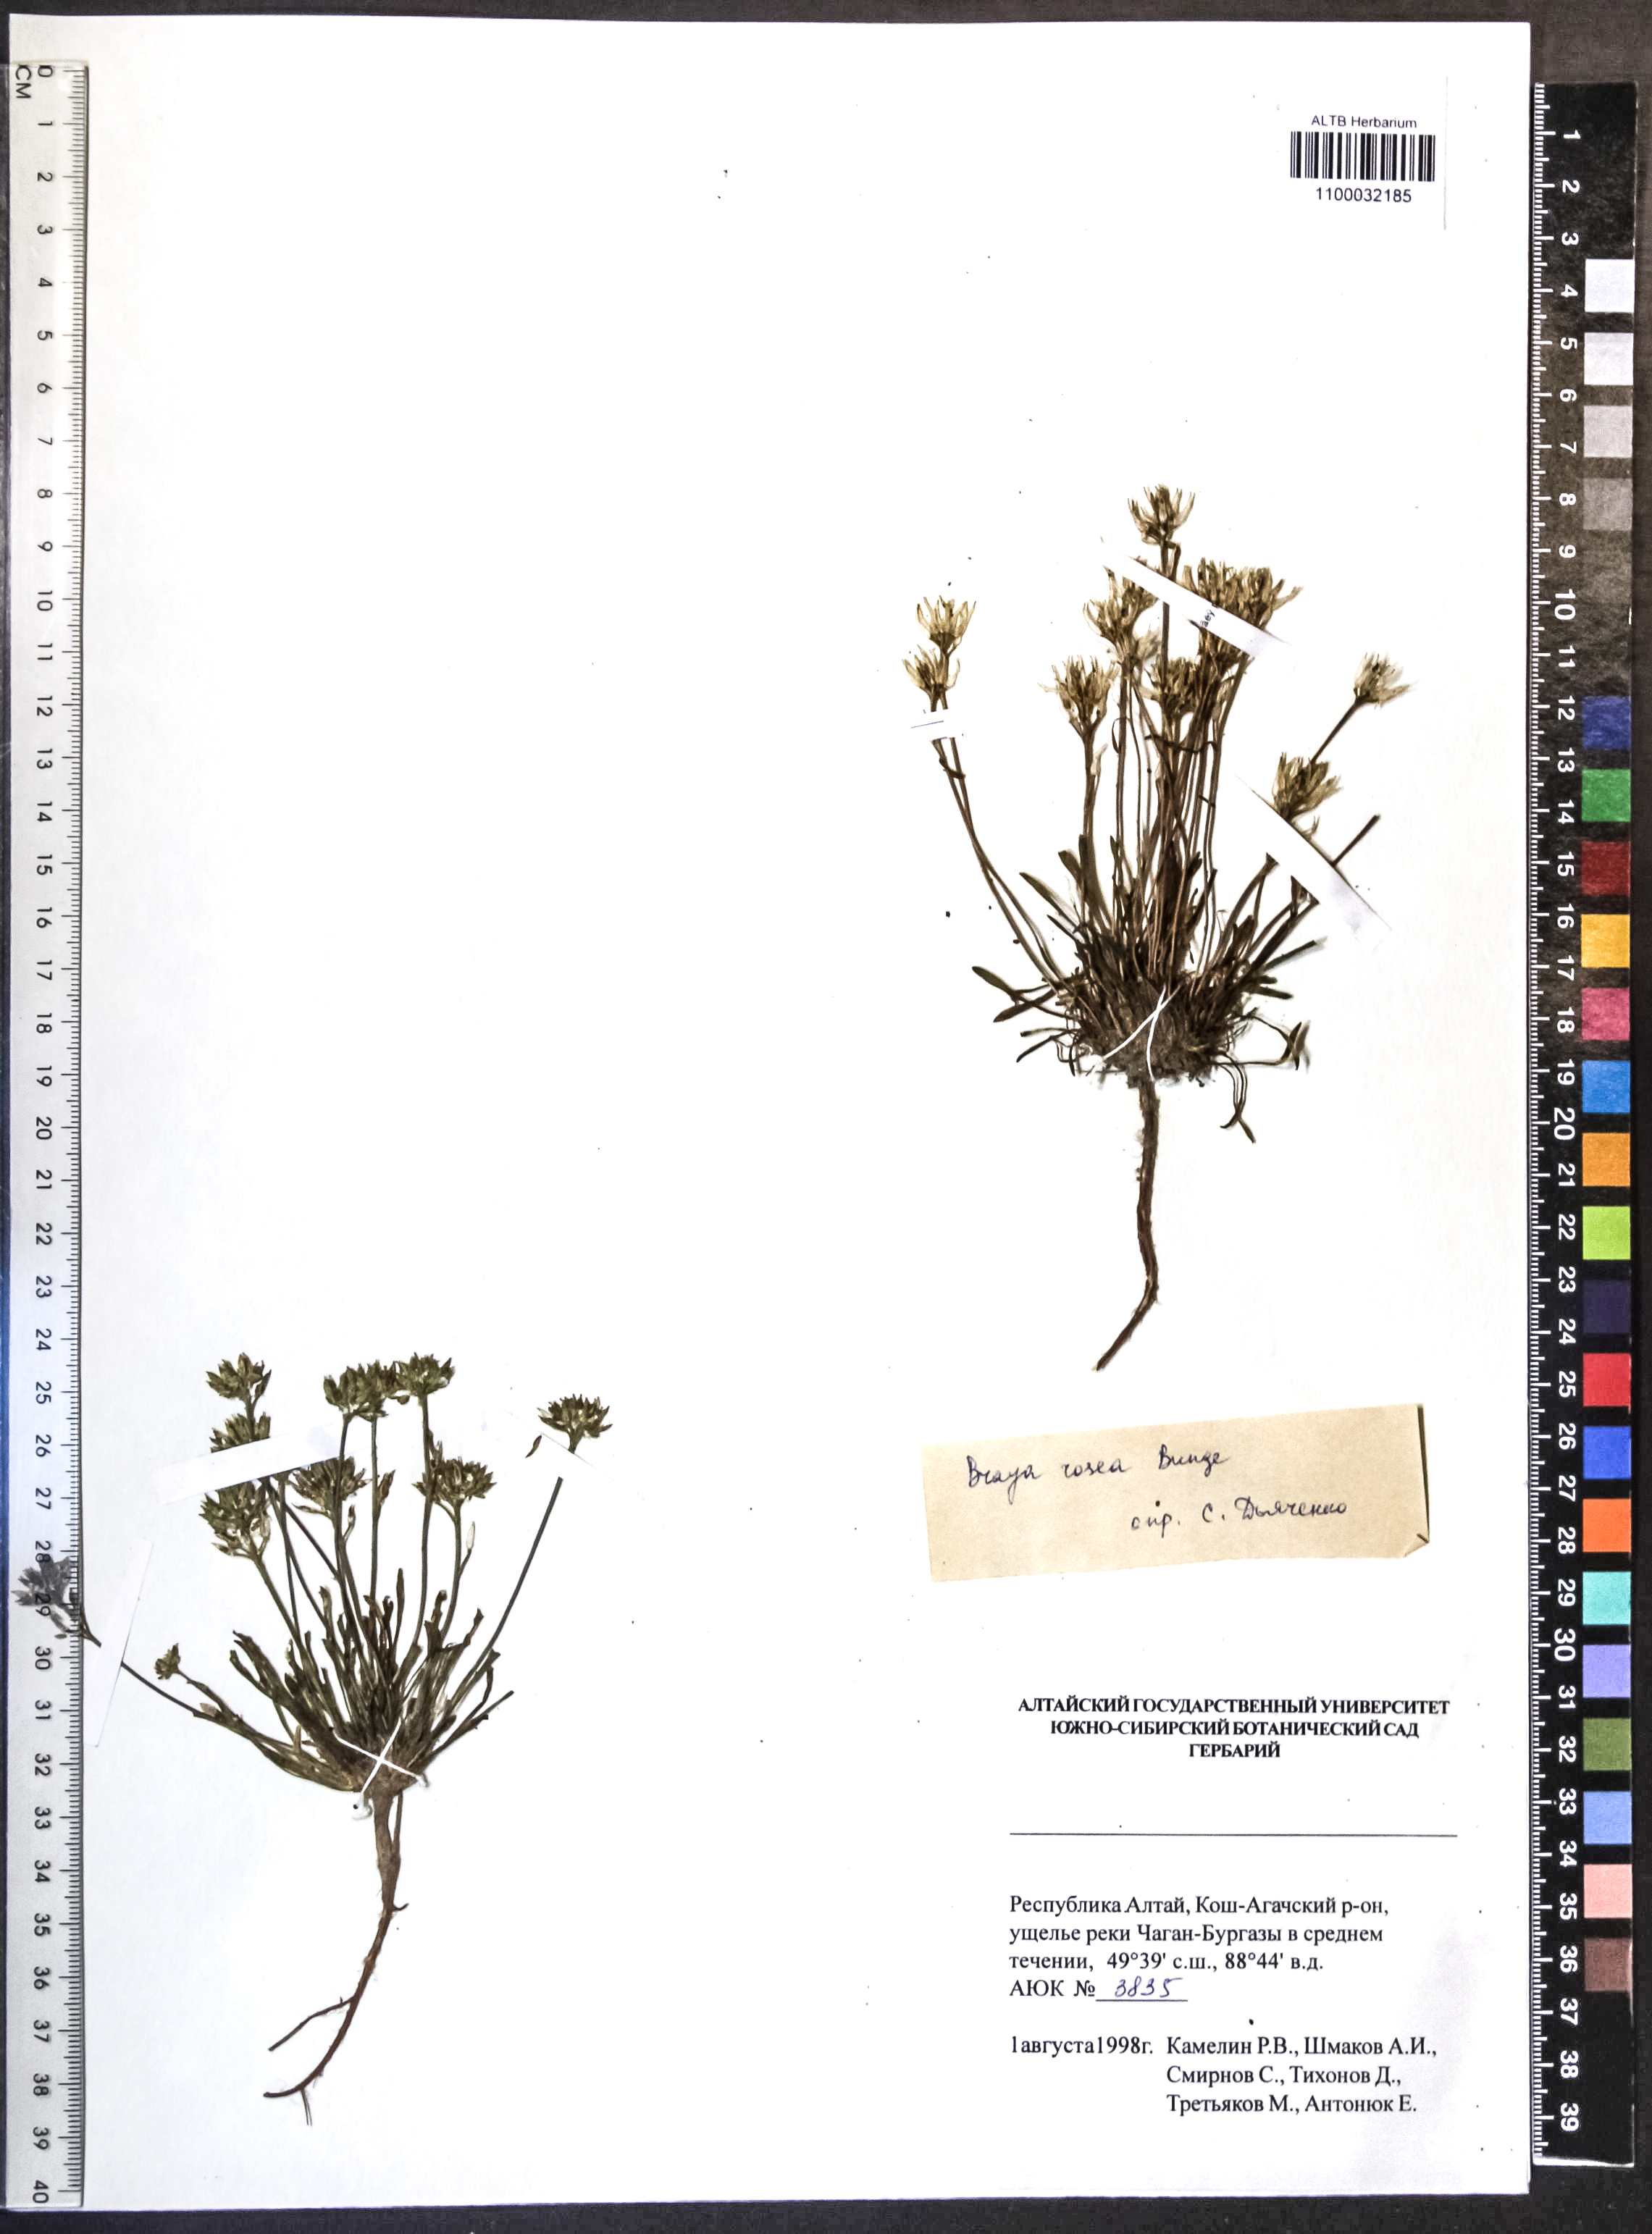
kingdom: Plantae
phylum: Tracheophyta
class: Magnoliopsida
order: Brassicales
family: Brassicaceae
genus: Braya
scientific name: Braya rosea
